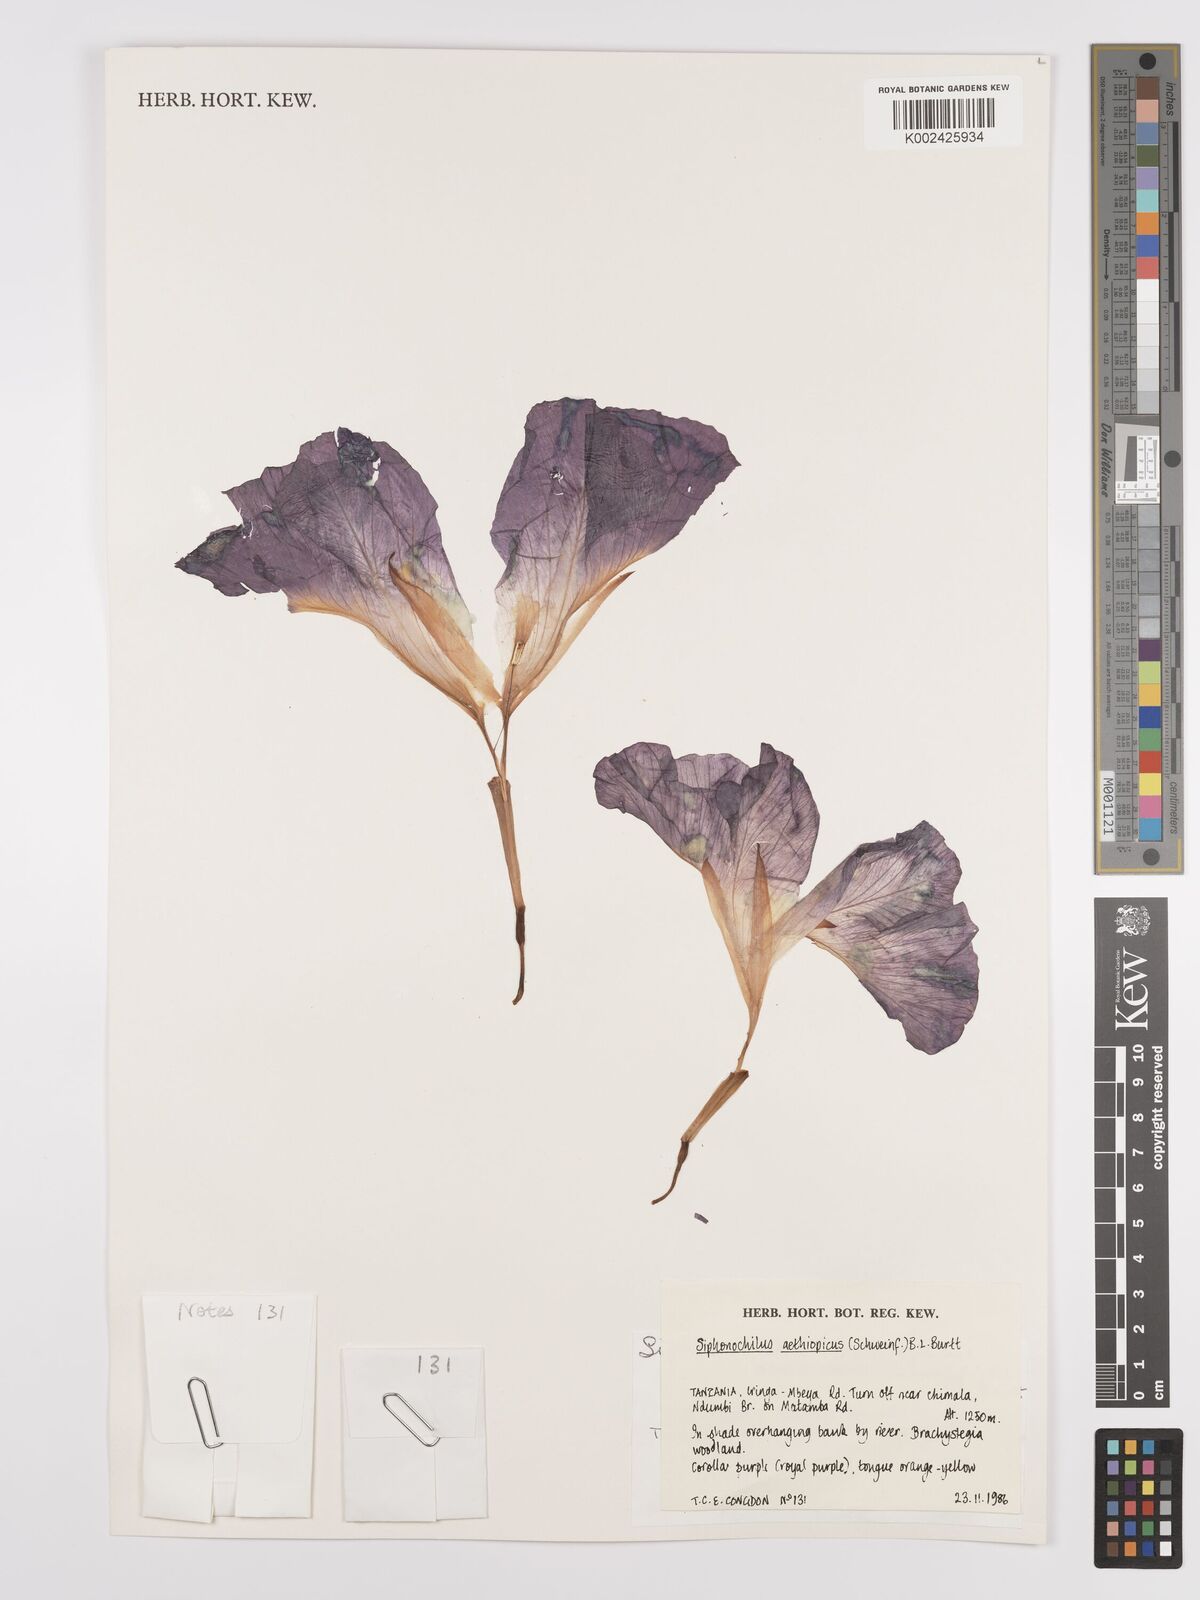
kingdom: Plantae
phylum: Tracheophyta
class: Liliopsida
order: Zingiberales
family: Zingiberaceae
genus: Siphonochilus
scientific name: Siphonochilus aethiopicus
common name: African-ginger
